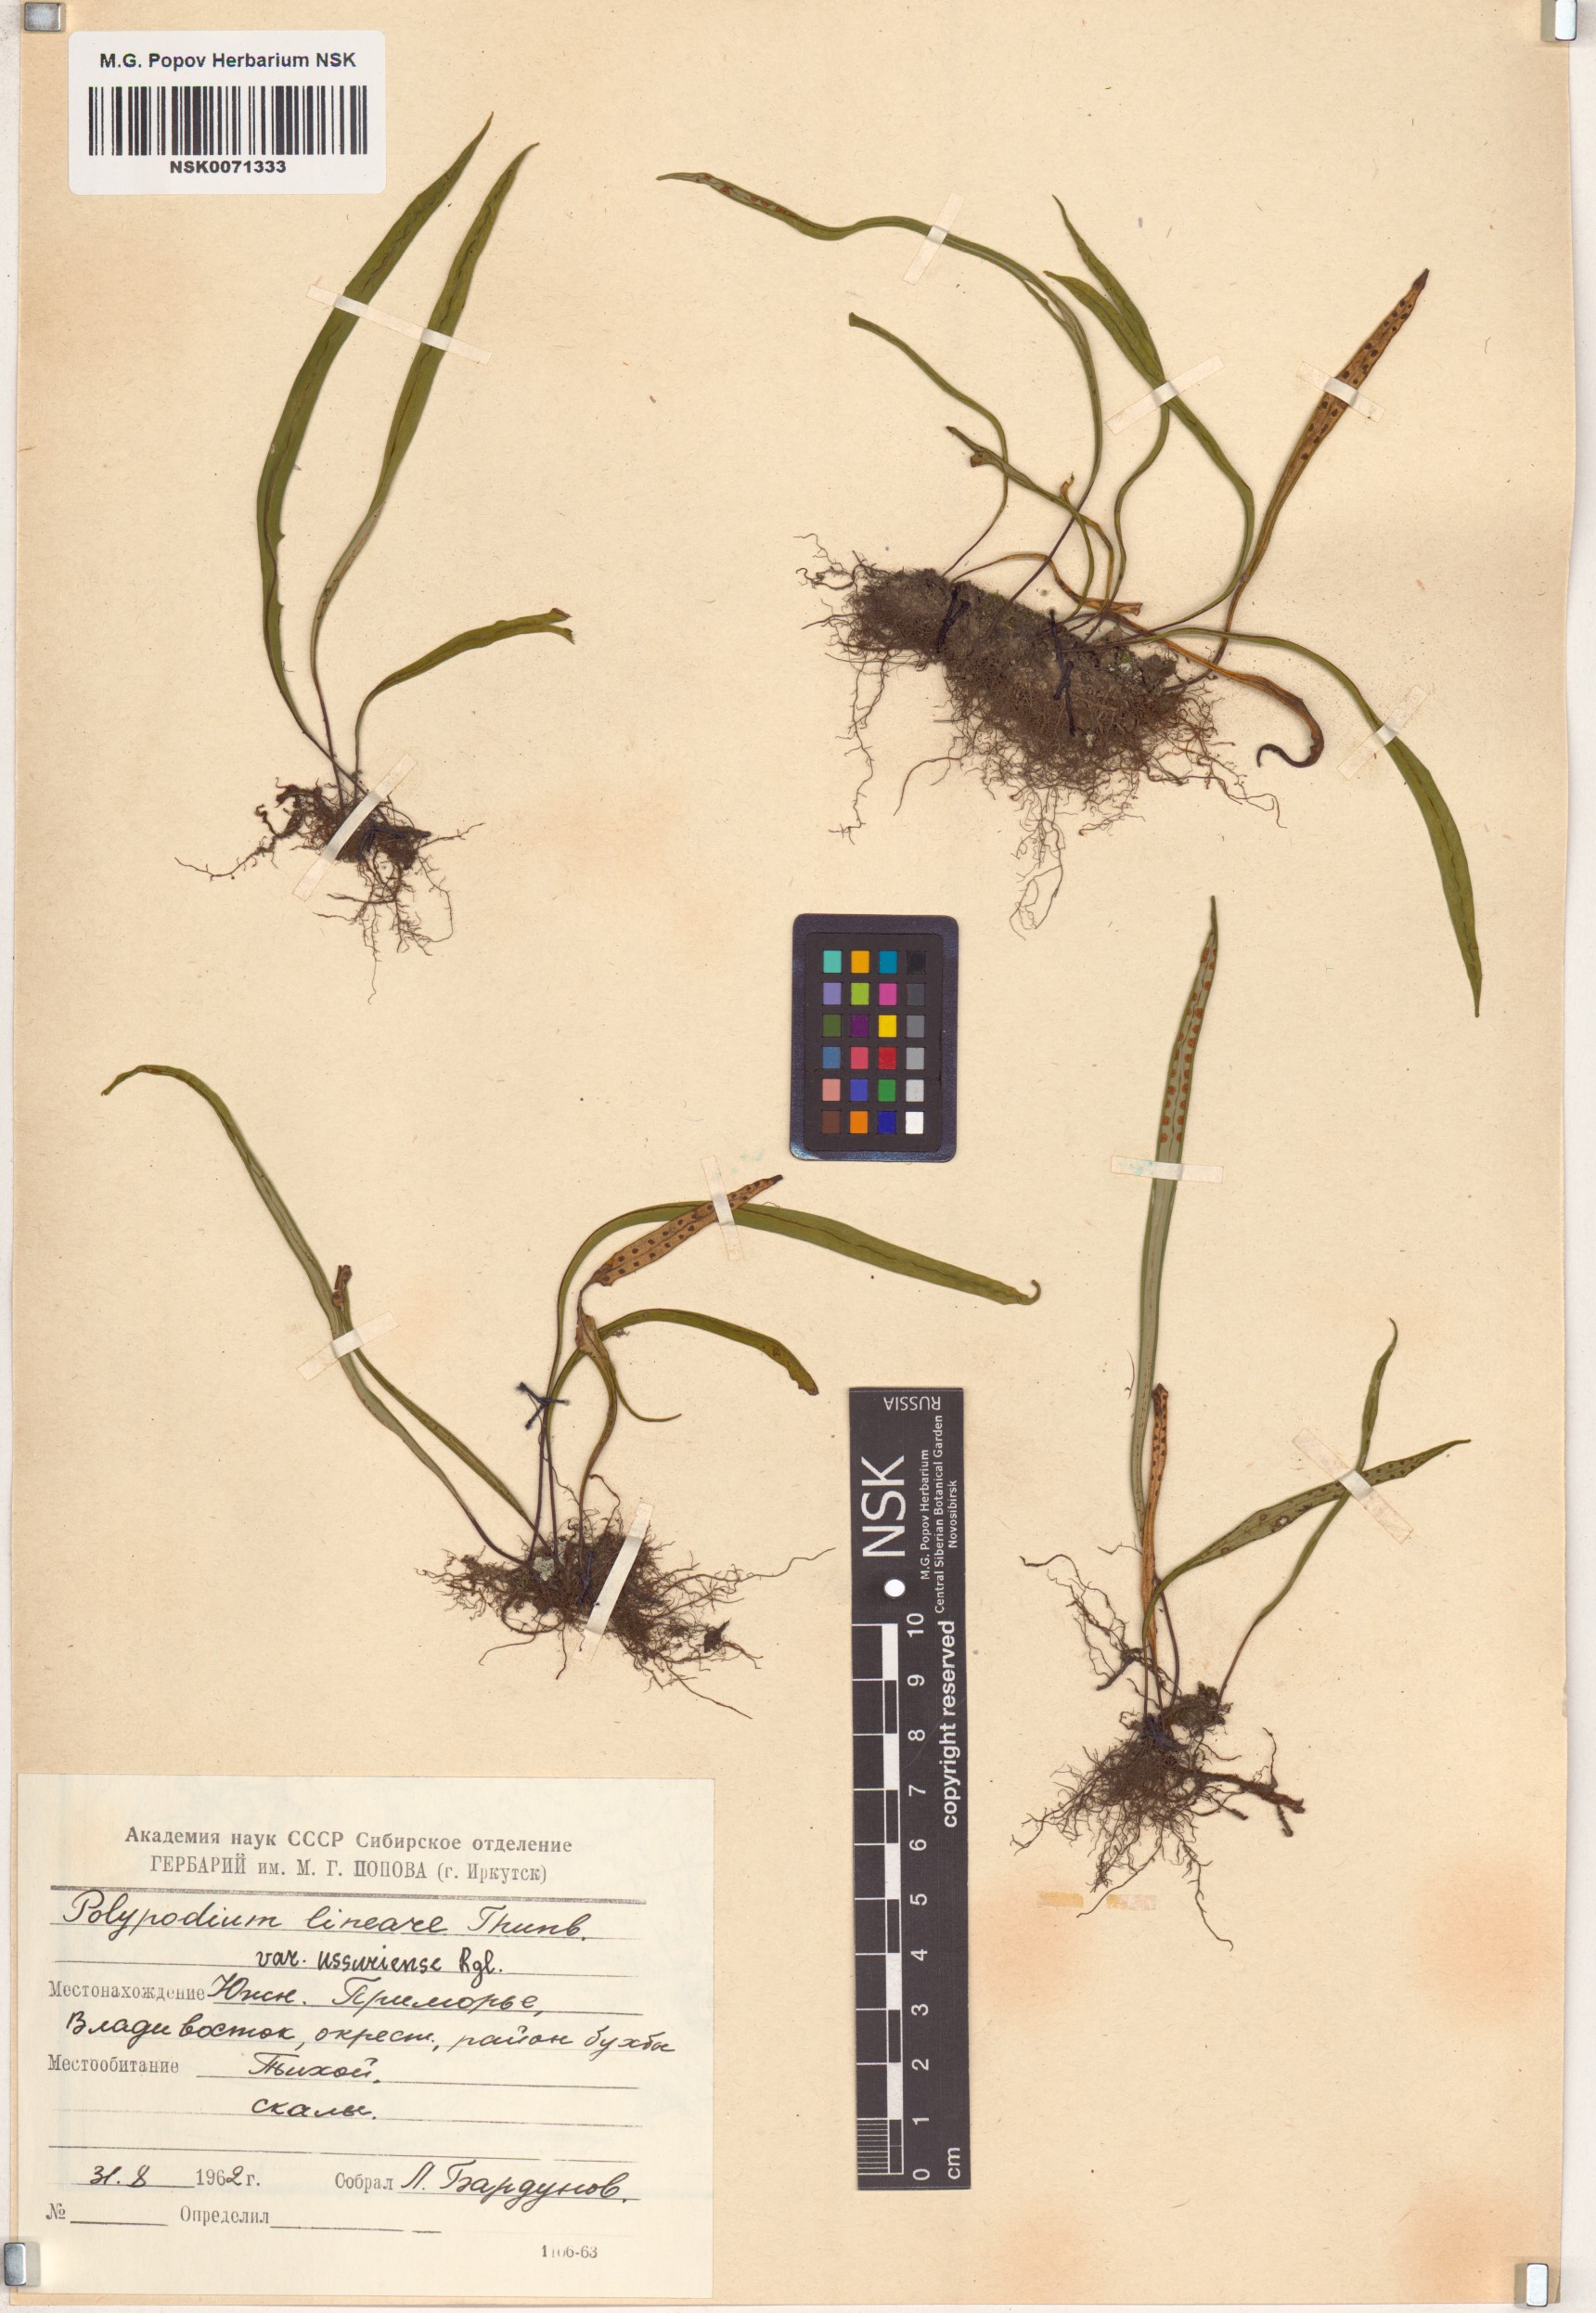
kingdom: Plantae
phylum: Tracheophyta
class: Polypodiopsida
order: Polypodiales
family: Polypodiaceae
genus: Lepisorus
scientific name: Lepisorus ussuriensis
